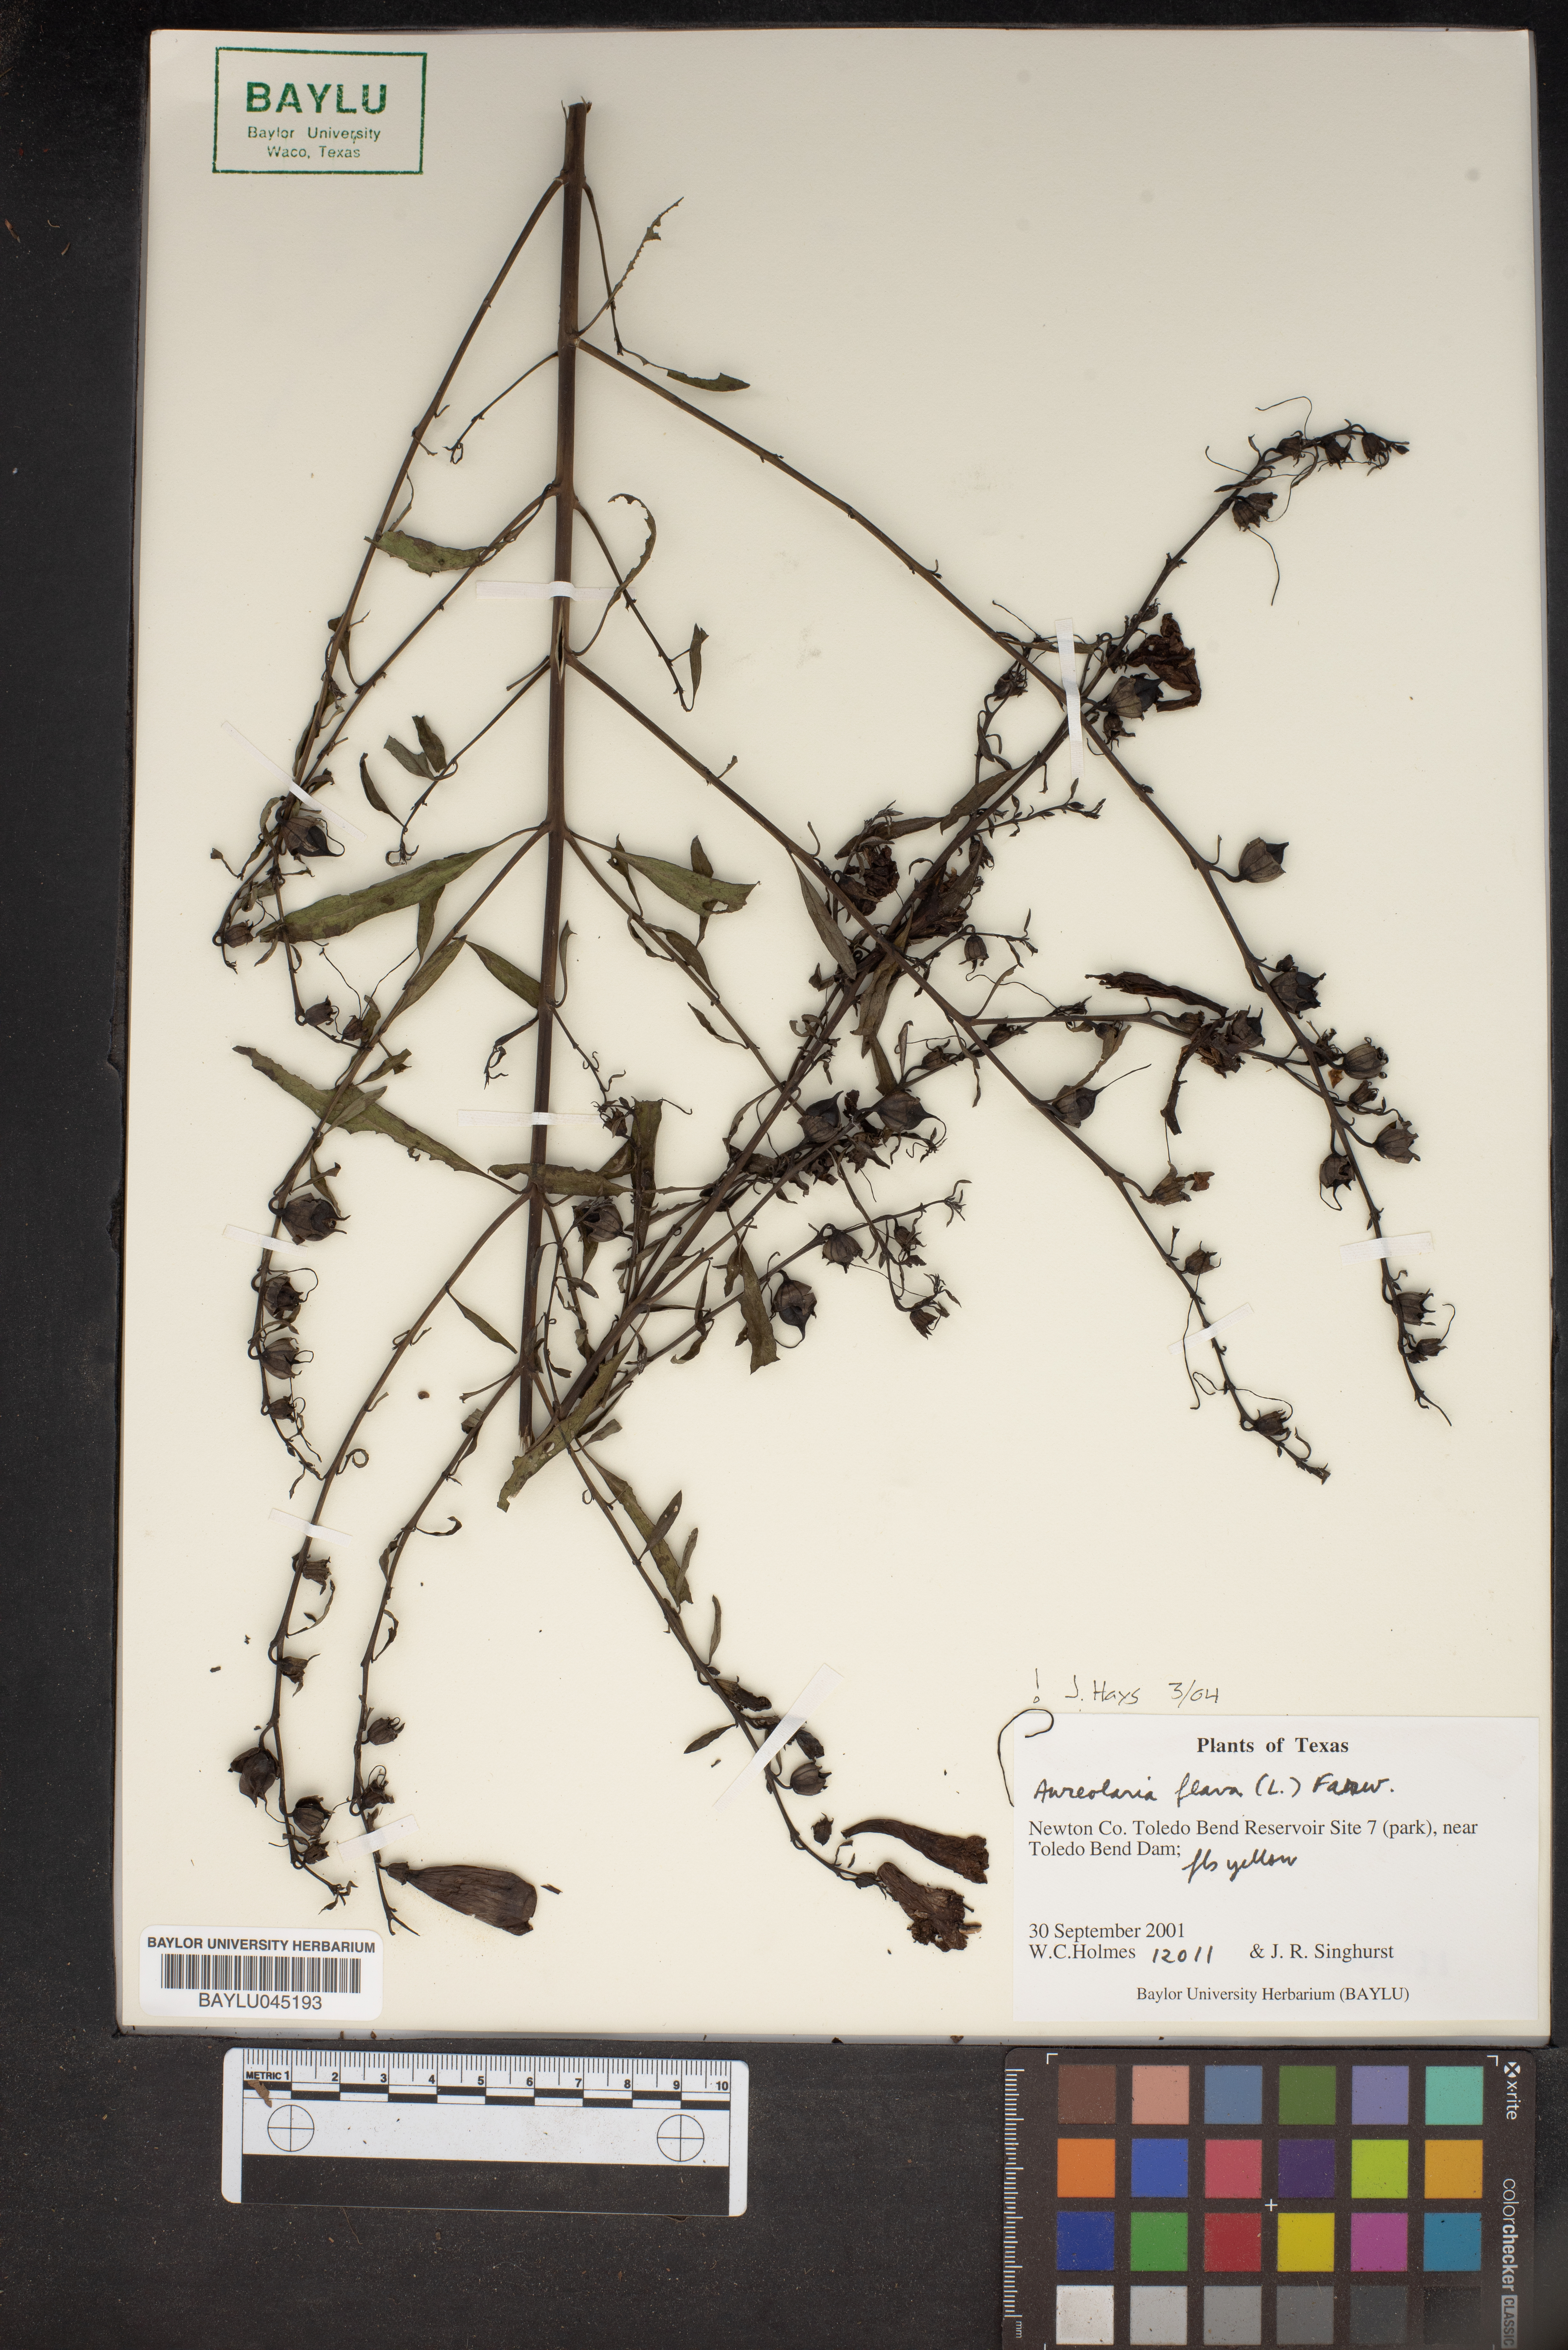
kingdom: Plantae
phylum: Tracheophyta
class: Magnoliopsida
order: Lamiales
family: Orobanchaceae
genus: Aureolaria
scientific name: Aureolaria flava
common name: Smooth false foxglove
